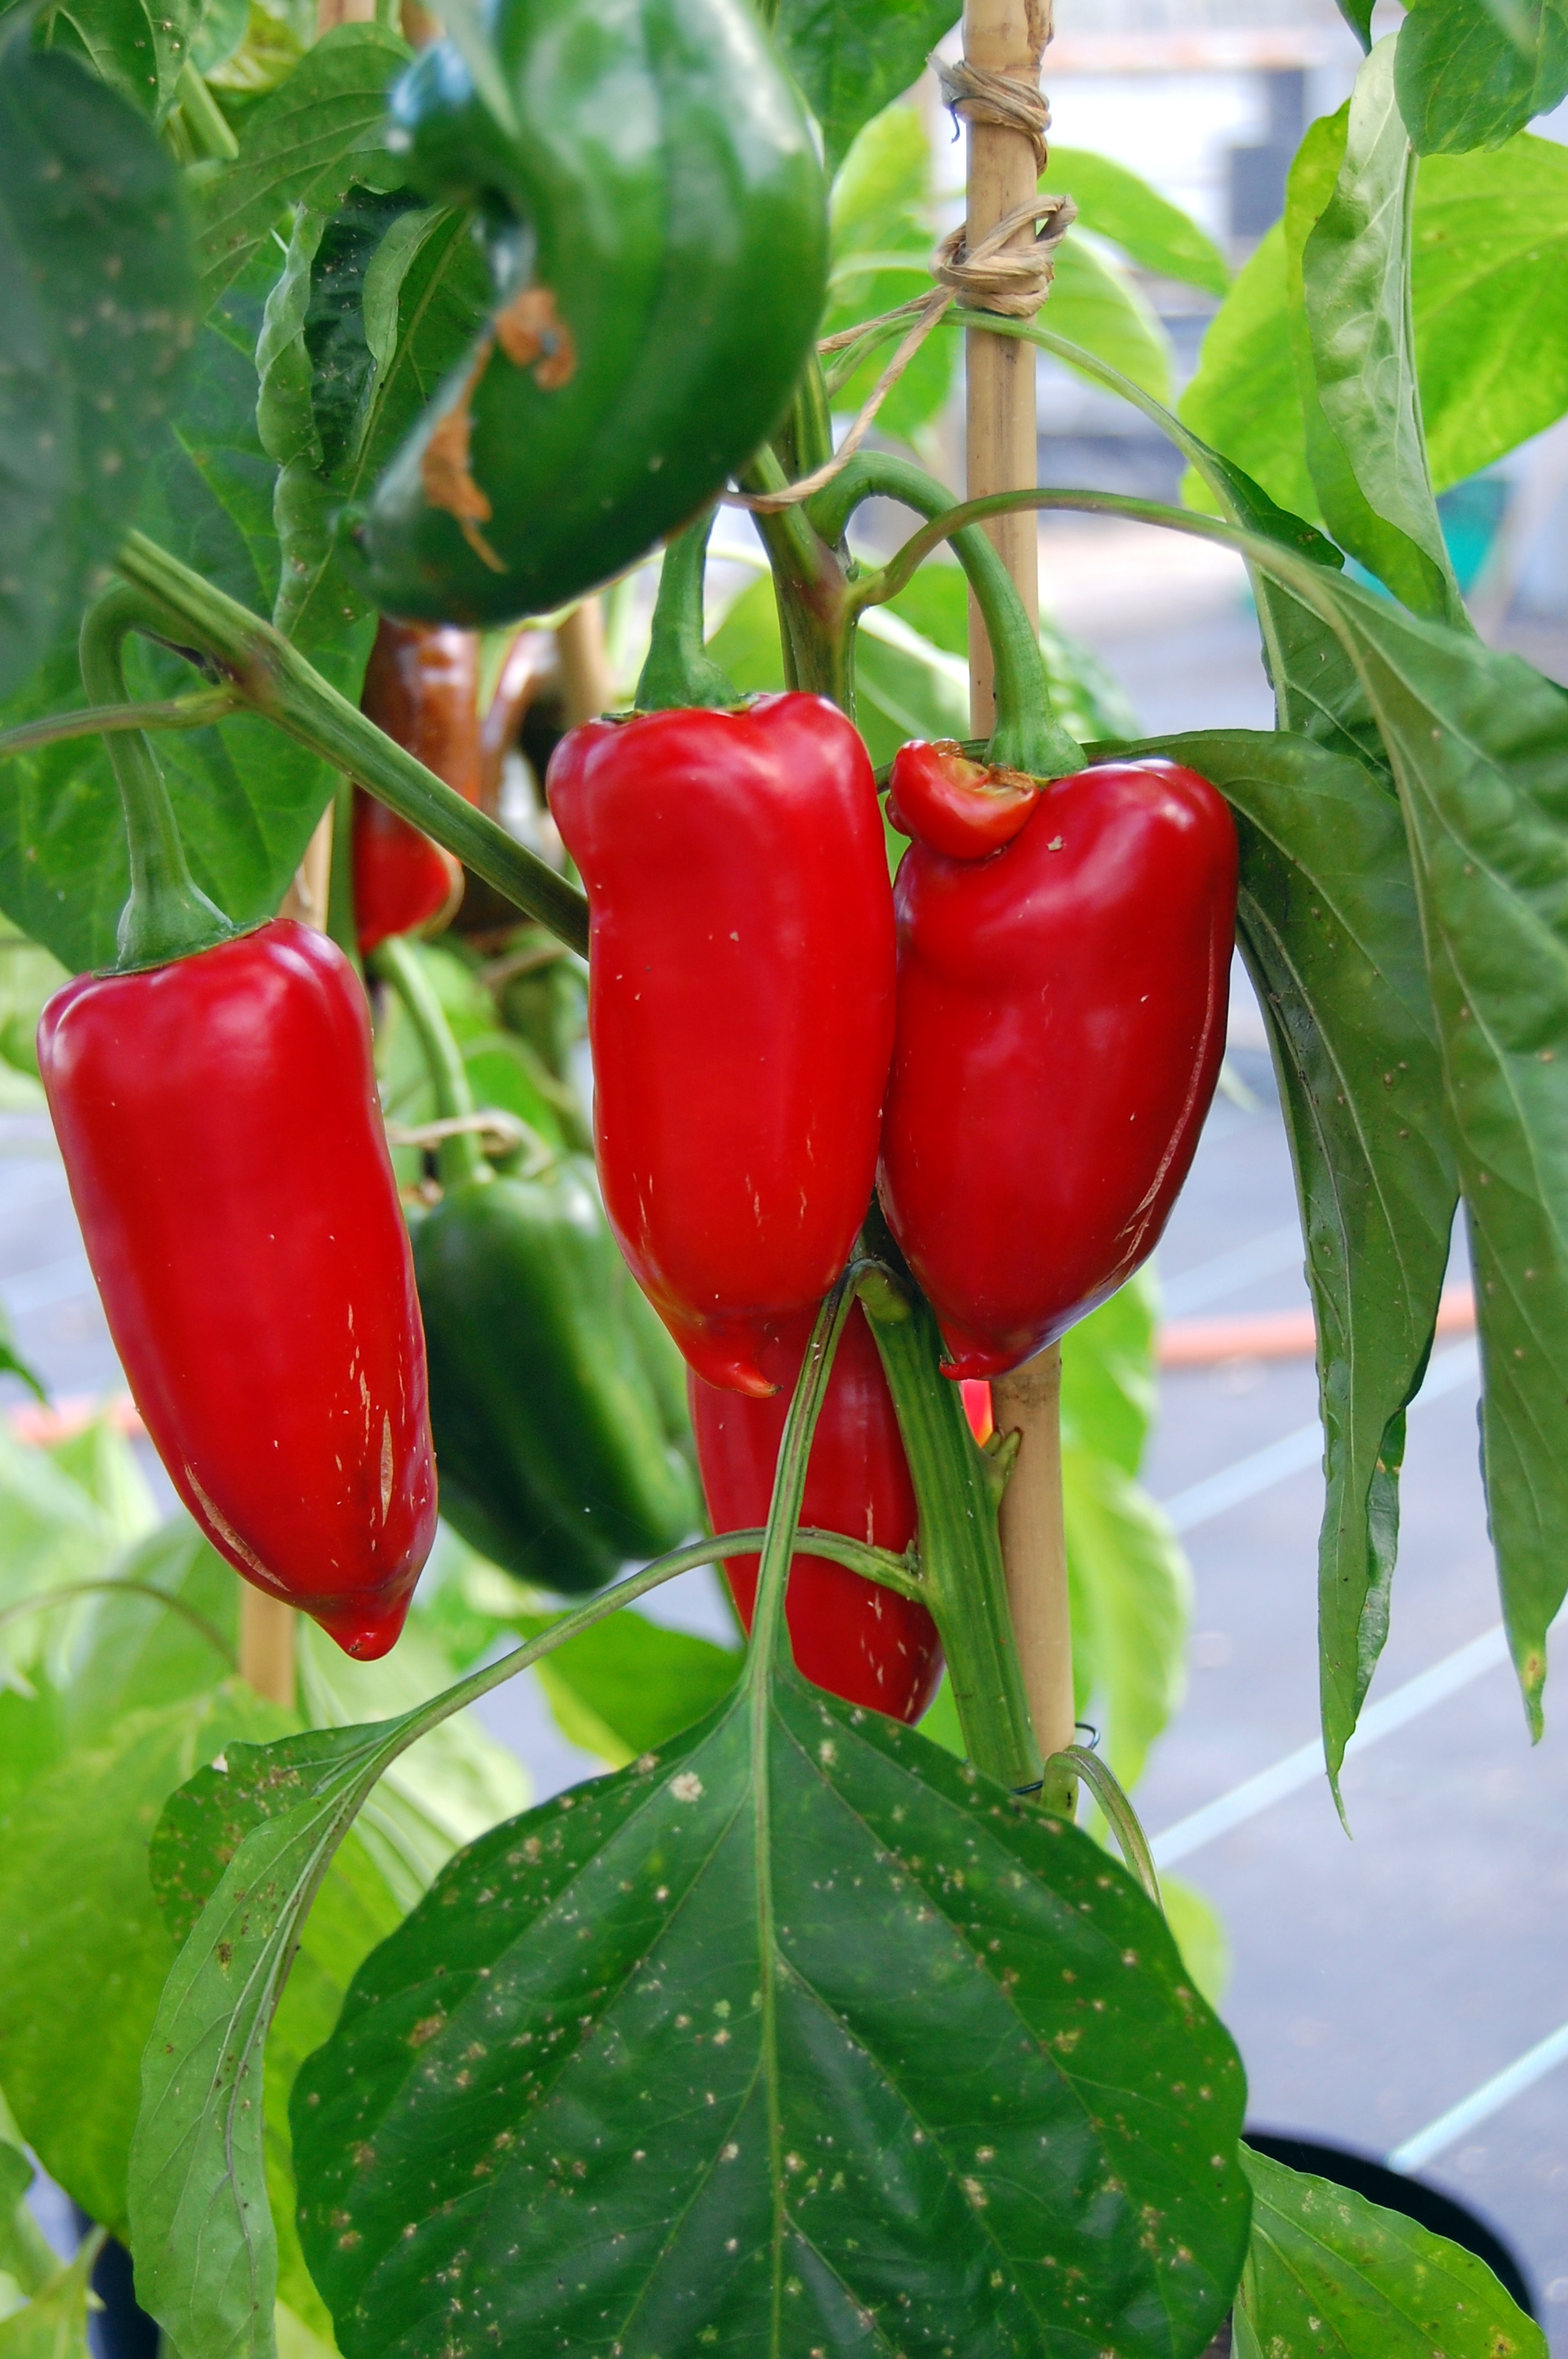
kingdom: Plantae
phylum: Tracheophyta
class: Magnoliopsida
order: Solanales
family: Solanaceae
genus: Capsicum
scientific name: Capsicum annuum
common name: Sweet pepper
